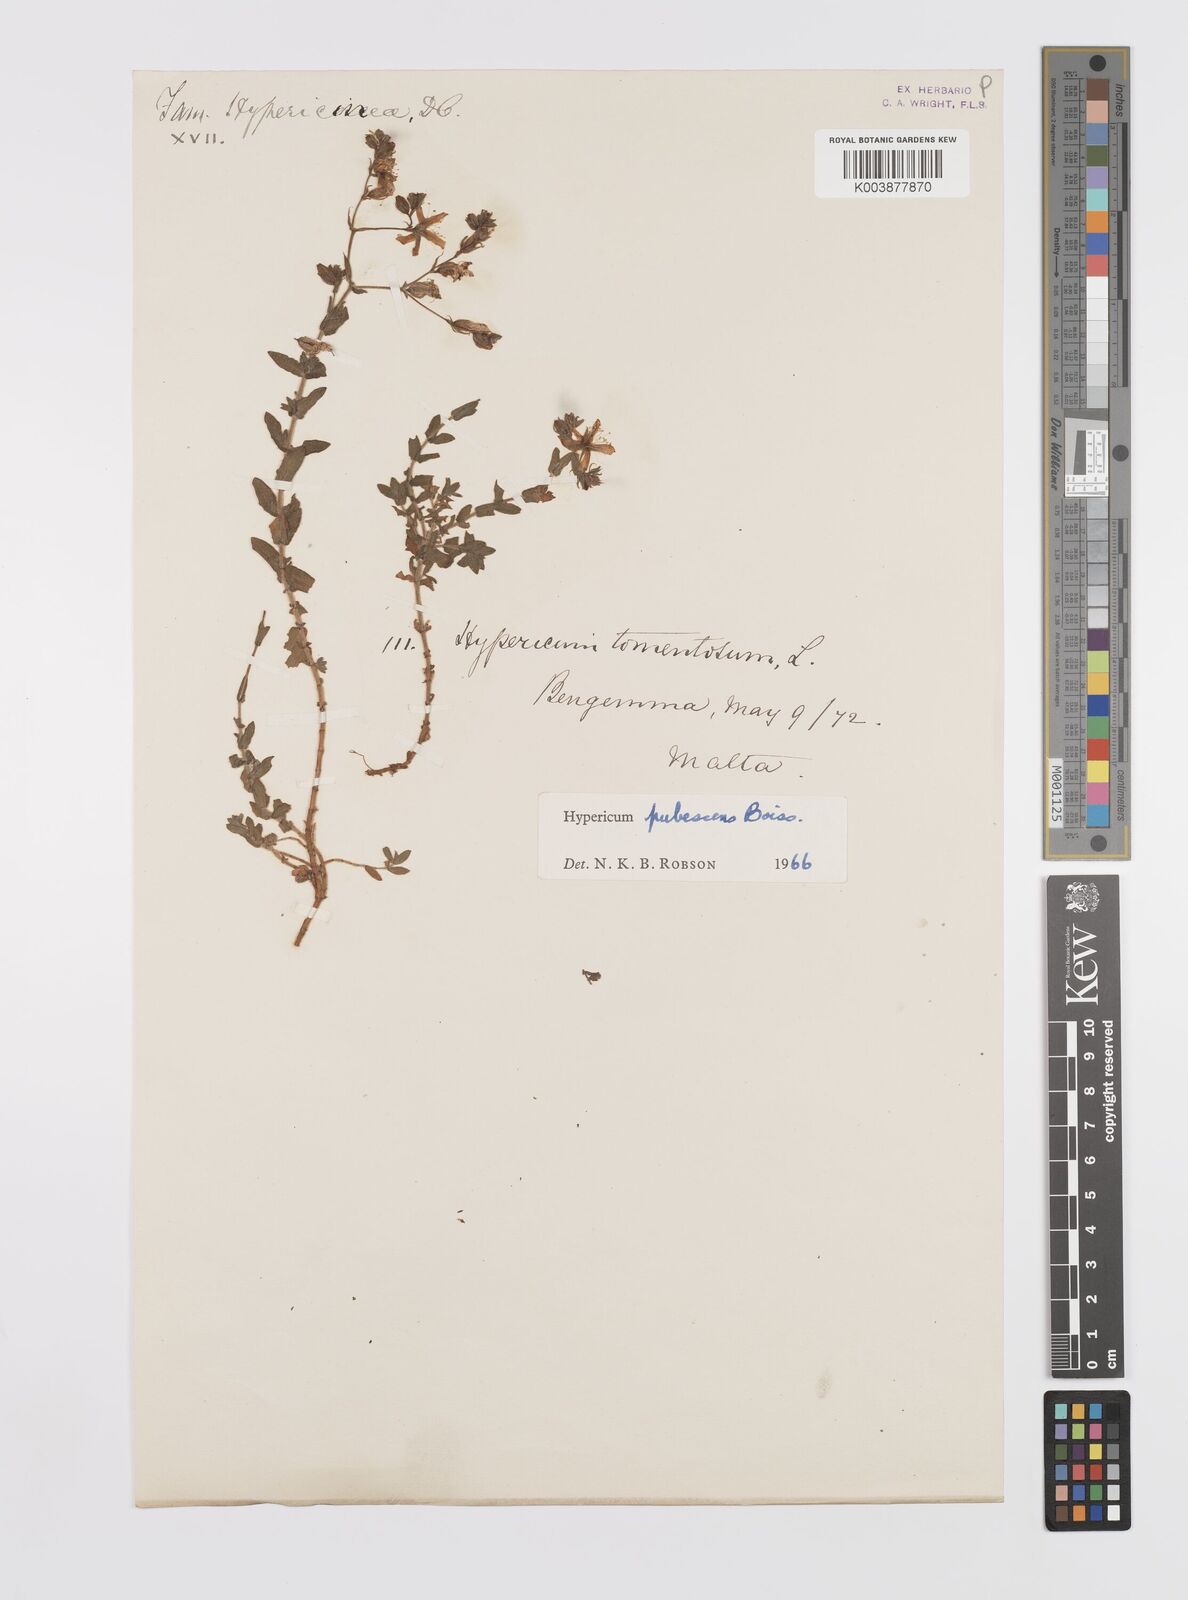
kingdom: Plantae
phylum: Tracheophyta
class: Magnoliopsida
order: Malpighiales
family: Hypericaceae
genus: Hypericum
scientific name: Hypericum pubescens
